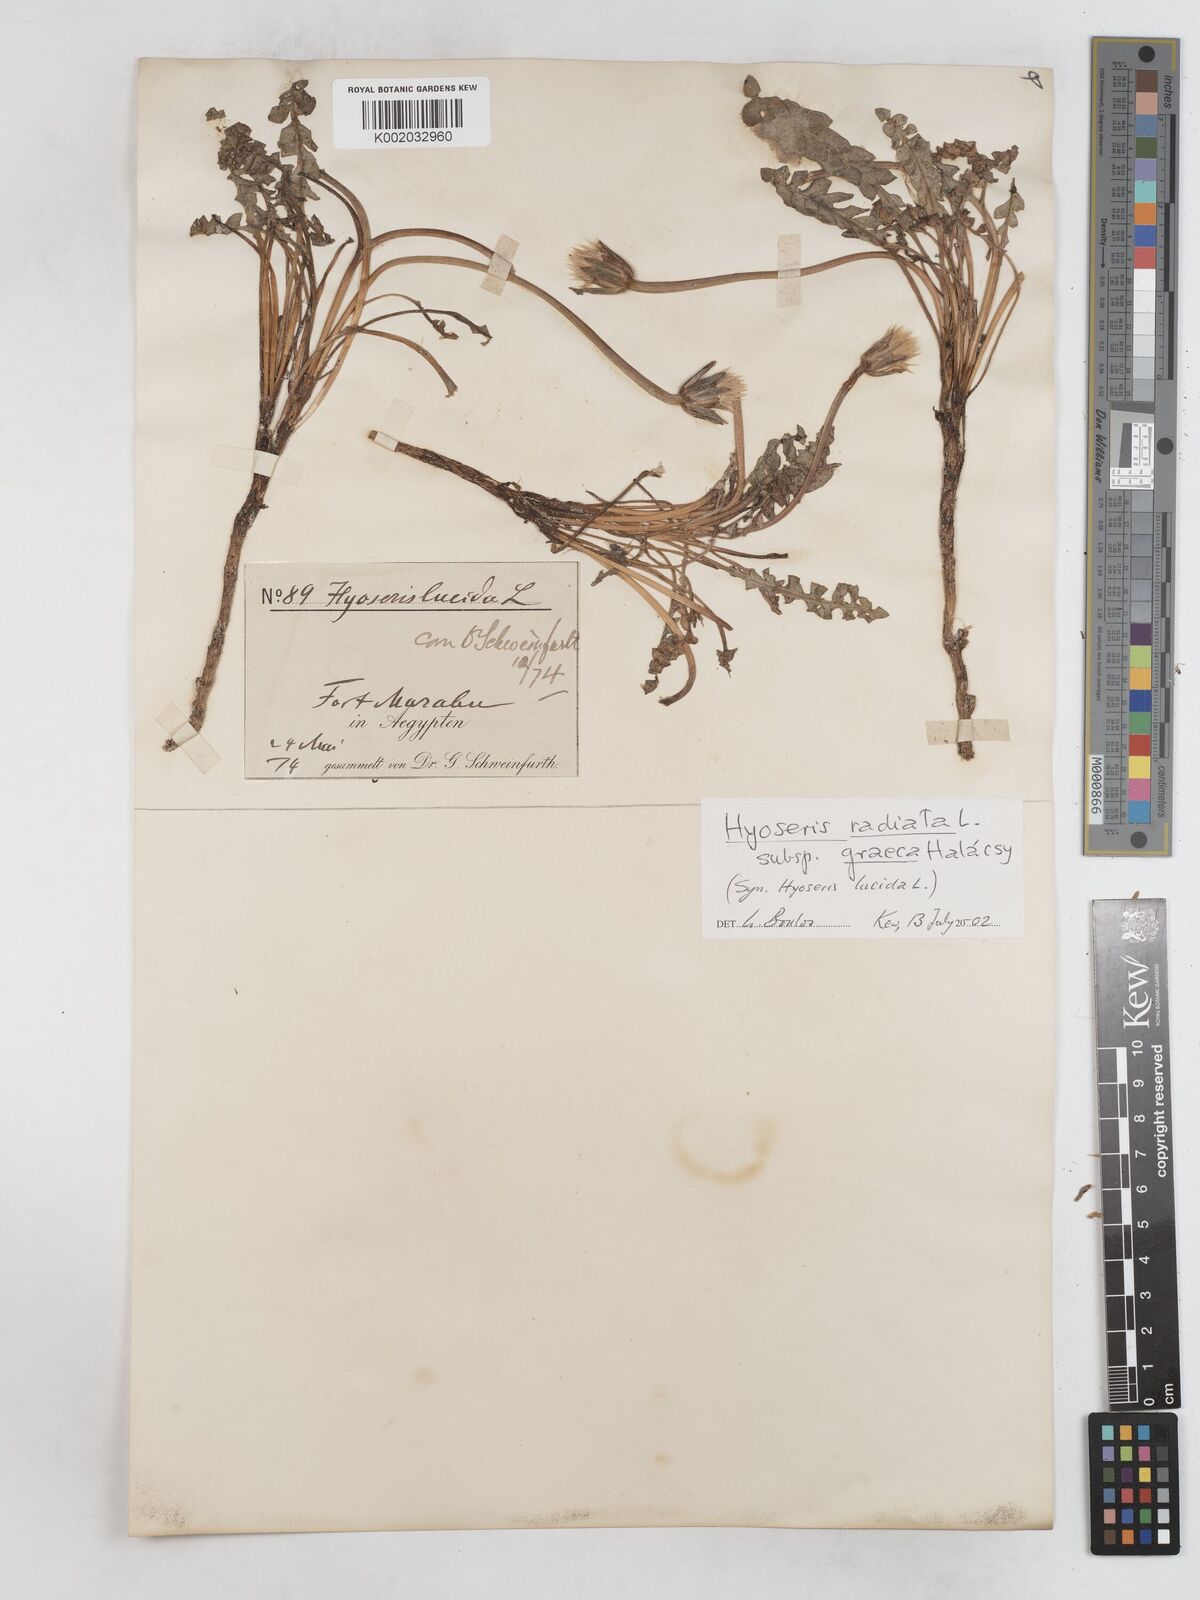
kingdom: Plantae
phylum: Tracheophyta
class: Magnoliopsida
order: Asterales
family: Asteraceae
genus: Hyoseris
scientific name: Hyoseris lucida
